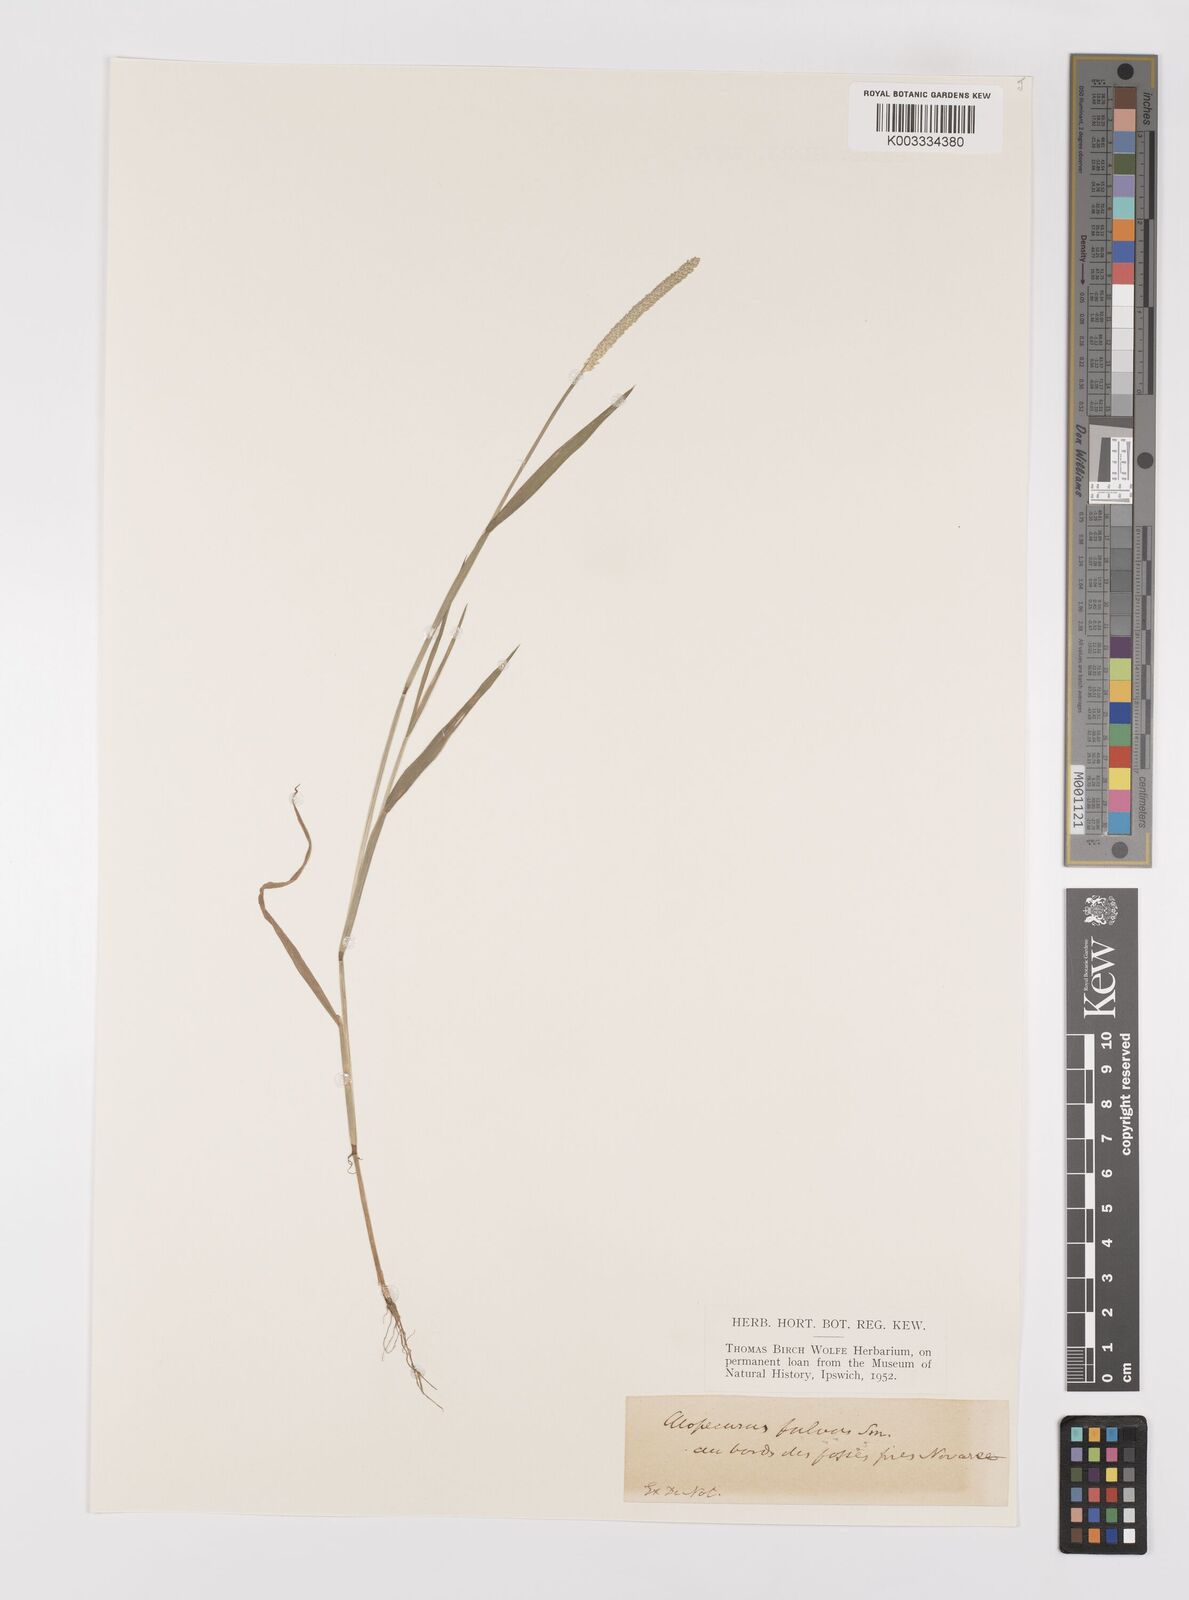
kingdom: Plantae
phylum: Tracheophyta
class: Liliopsida
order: Poales
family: Poaceae
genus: Alopecurus
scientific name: Alopecurus aequalis
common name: Orange foxtail
